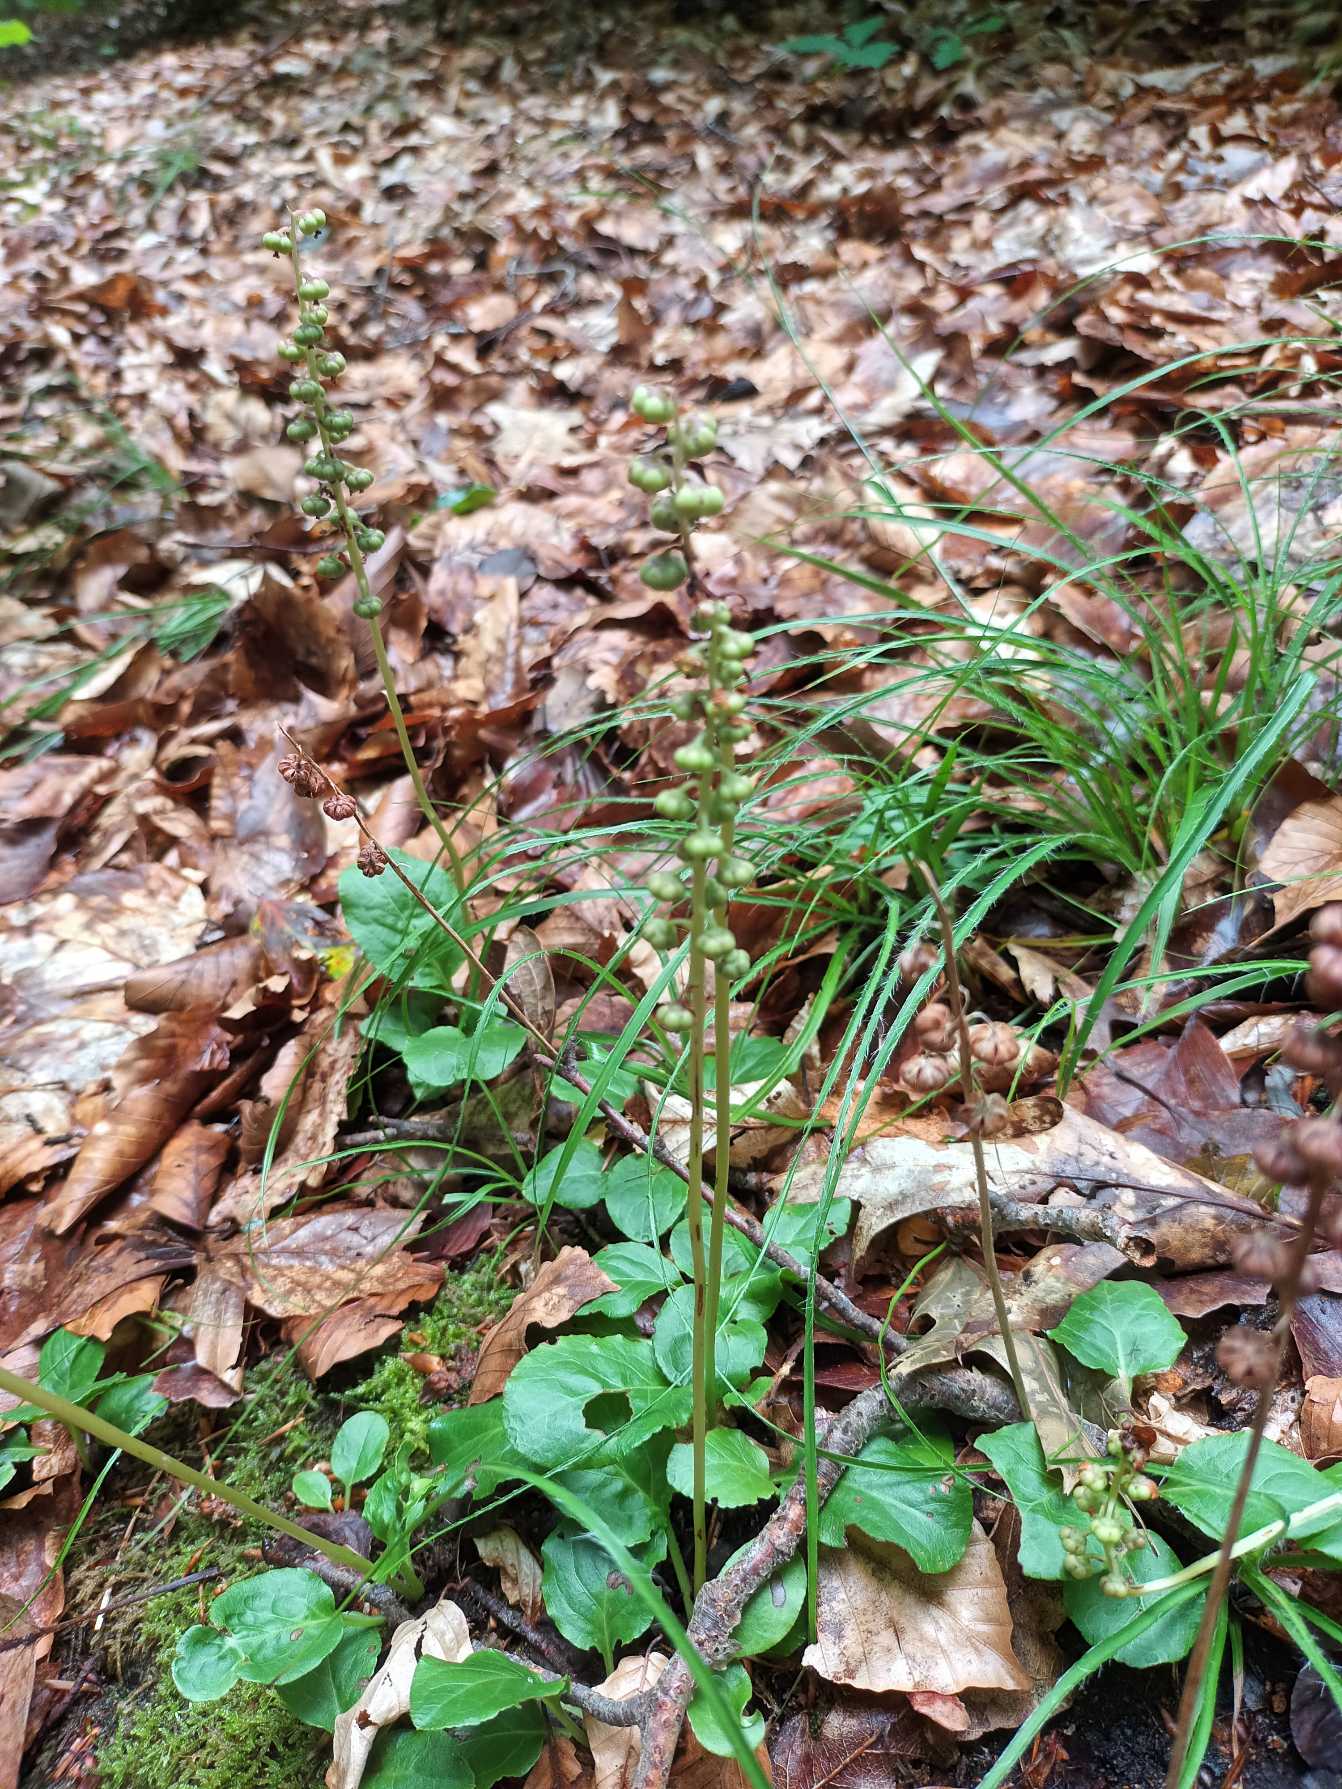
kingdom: Plantae
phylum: Tracheophyta
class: Magnoliopsida
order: Ericales
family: Ericaceae
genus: Pyrola
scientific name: Pyrola minor
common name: Liden vintergrøn
